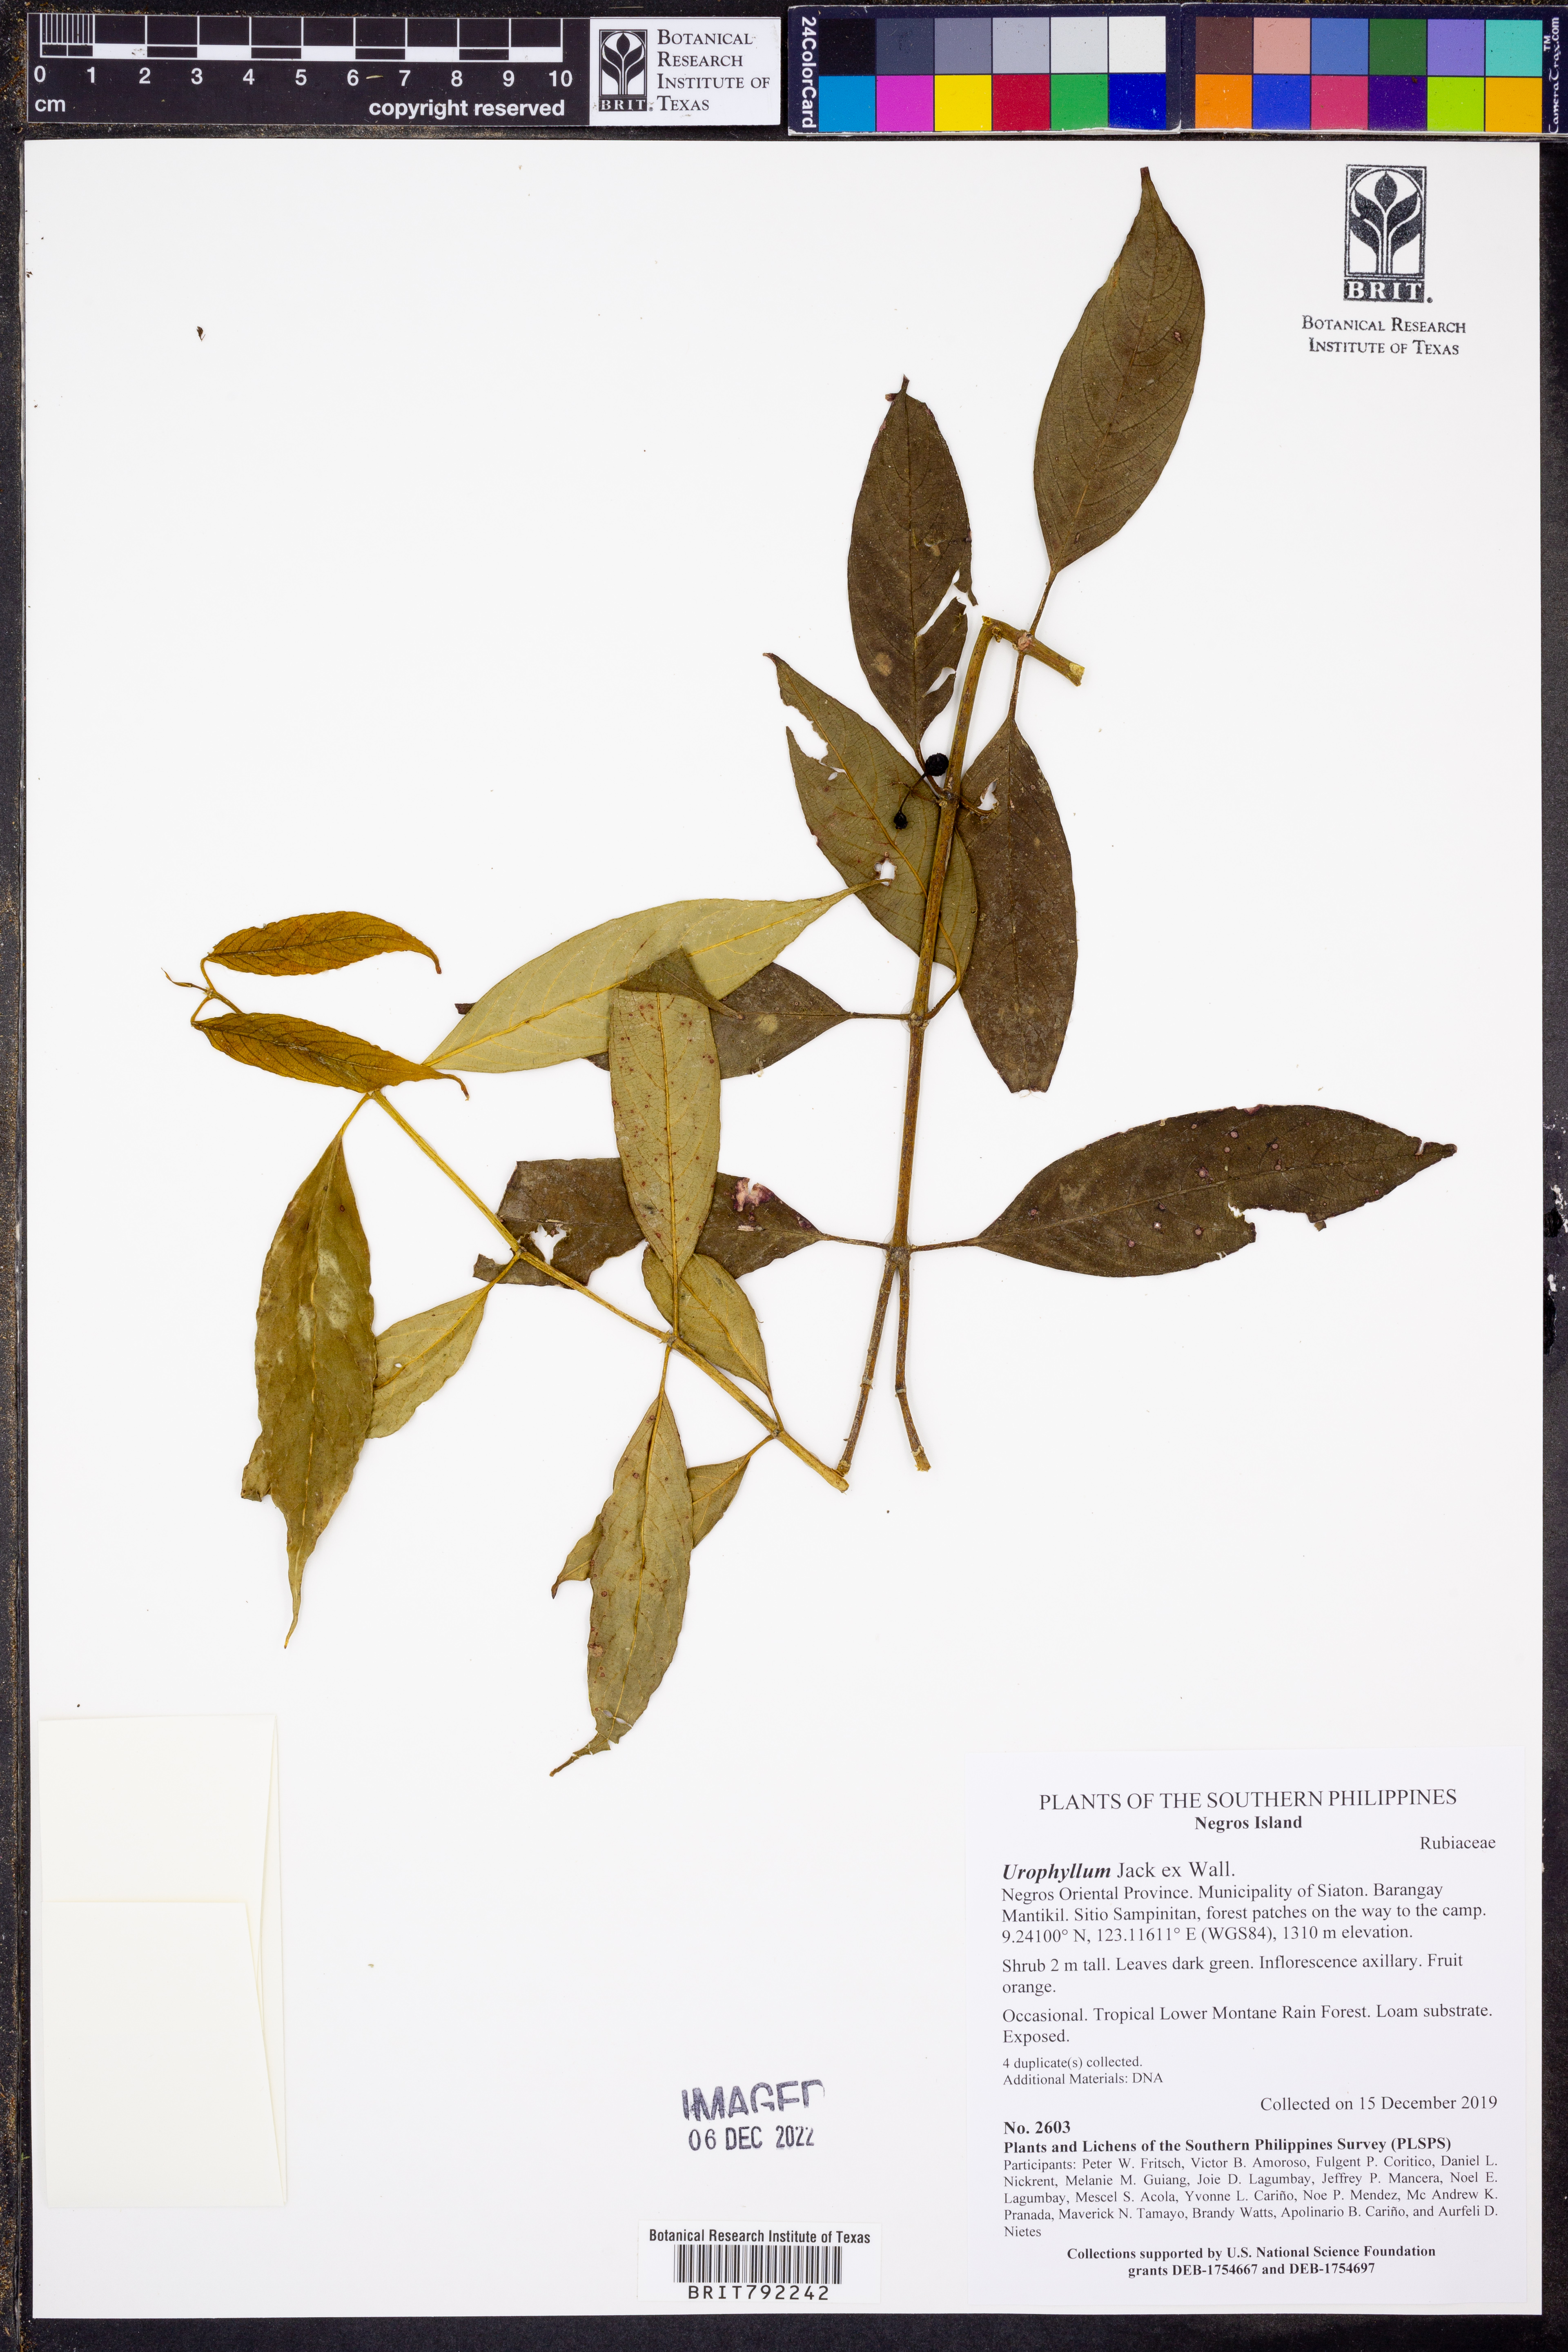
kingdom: Plantae
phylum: Tracheophyta
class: Magnoliopsida
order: Gentianales
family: Rubiaceae
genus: Urophyllum
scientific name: Urophyllum
